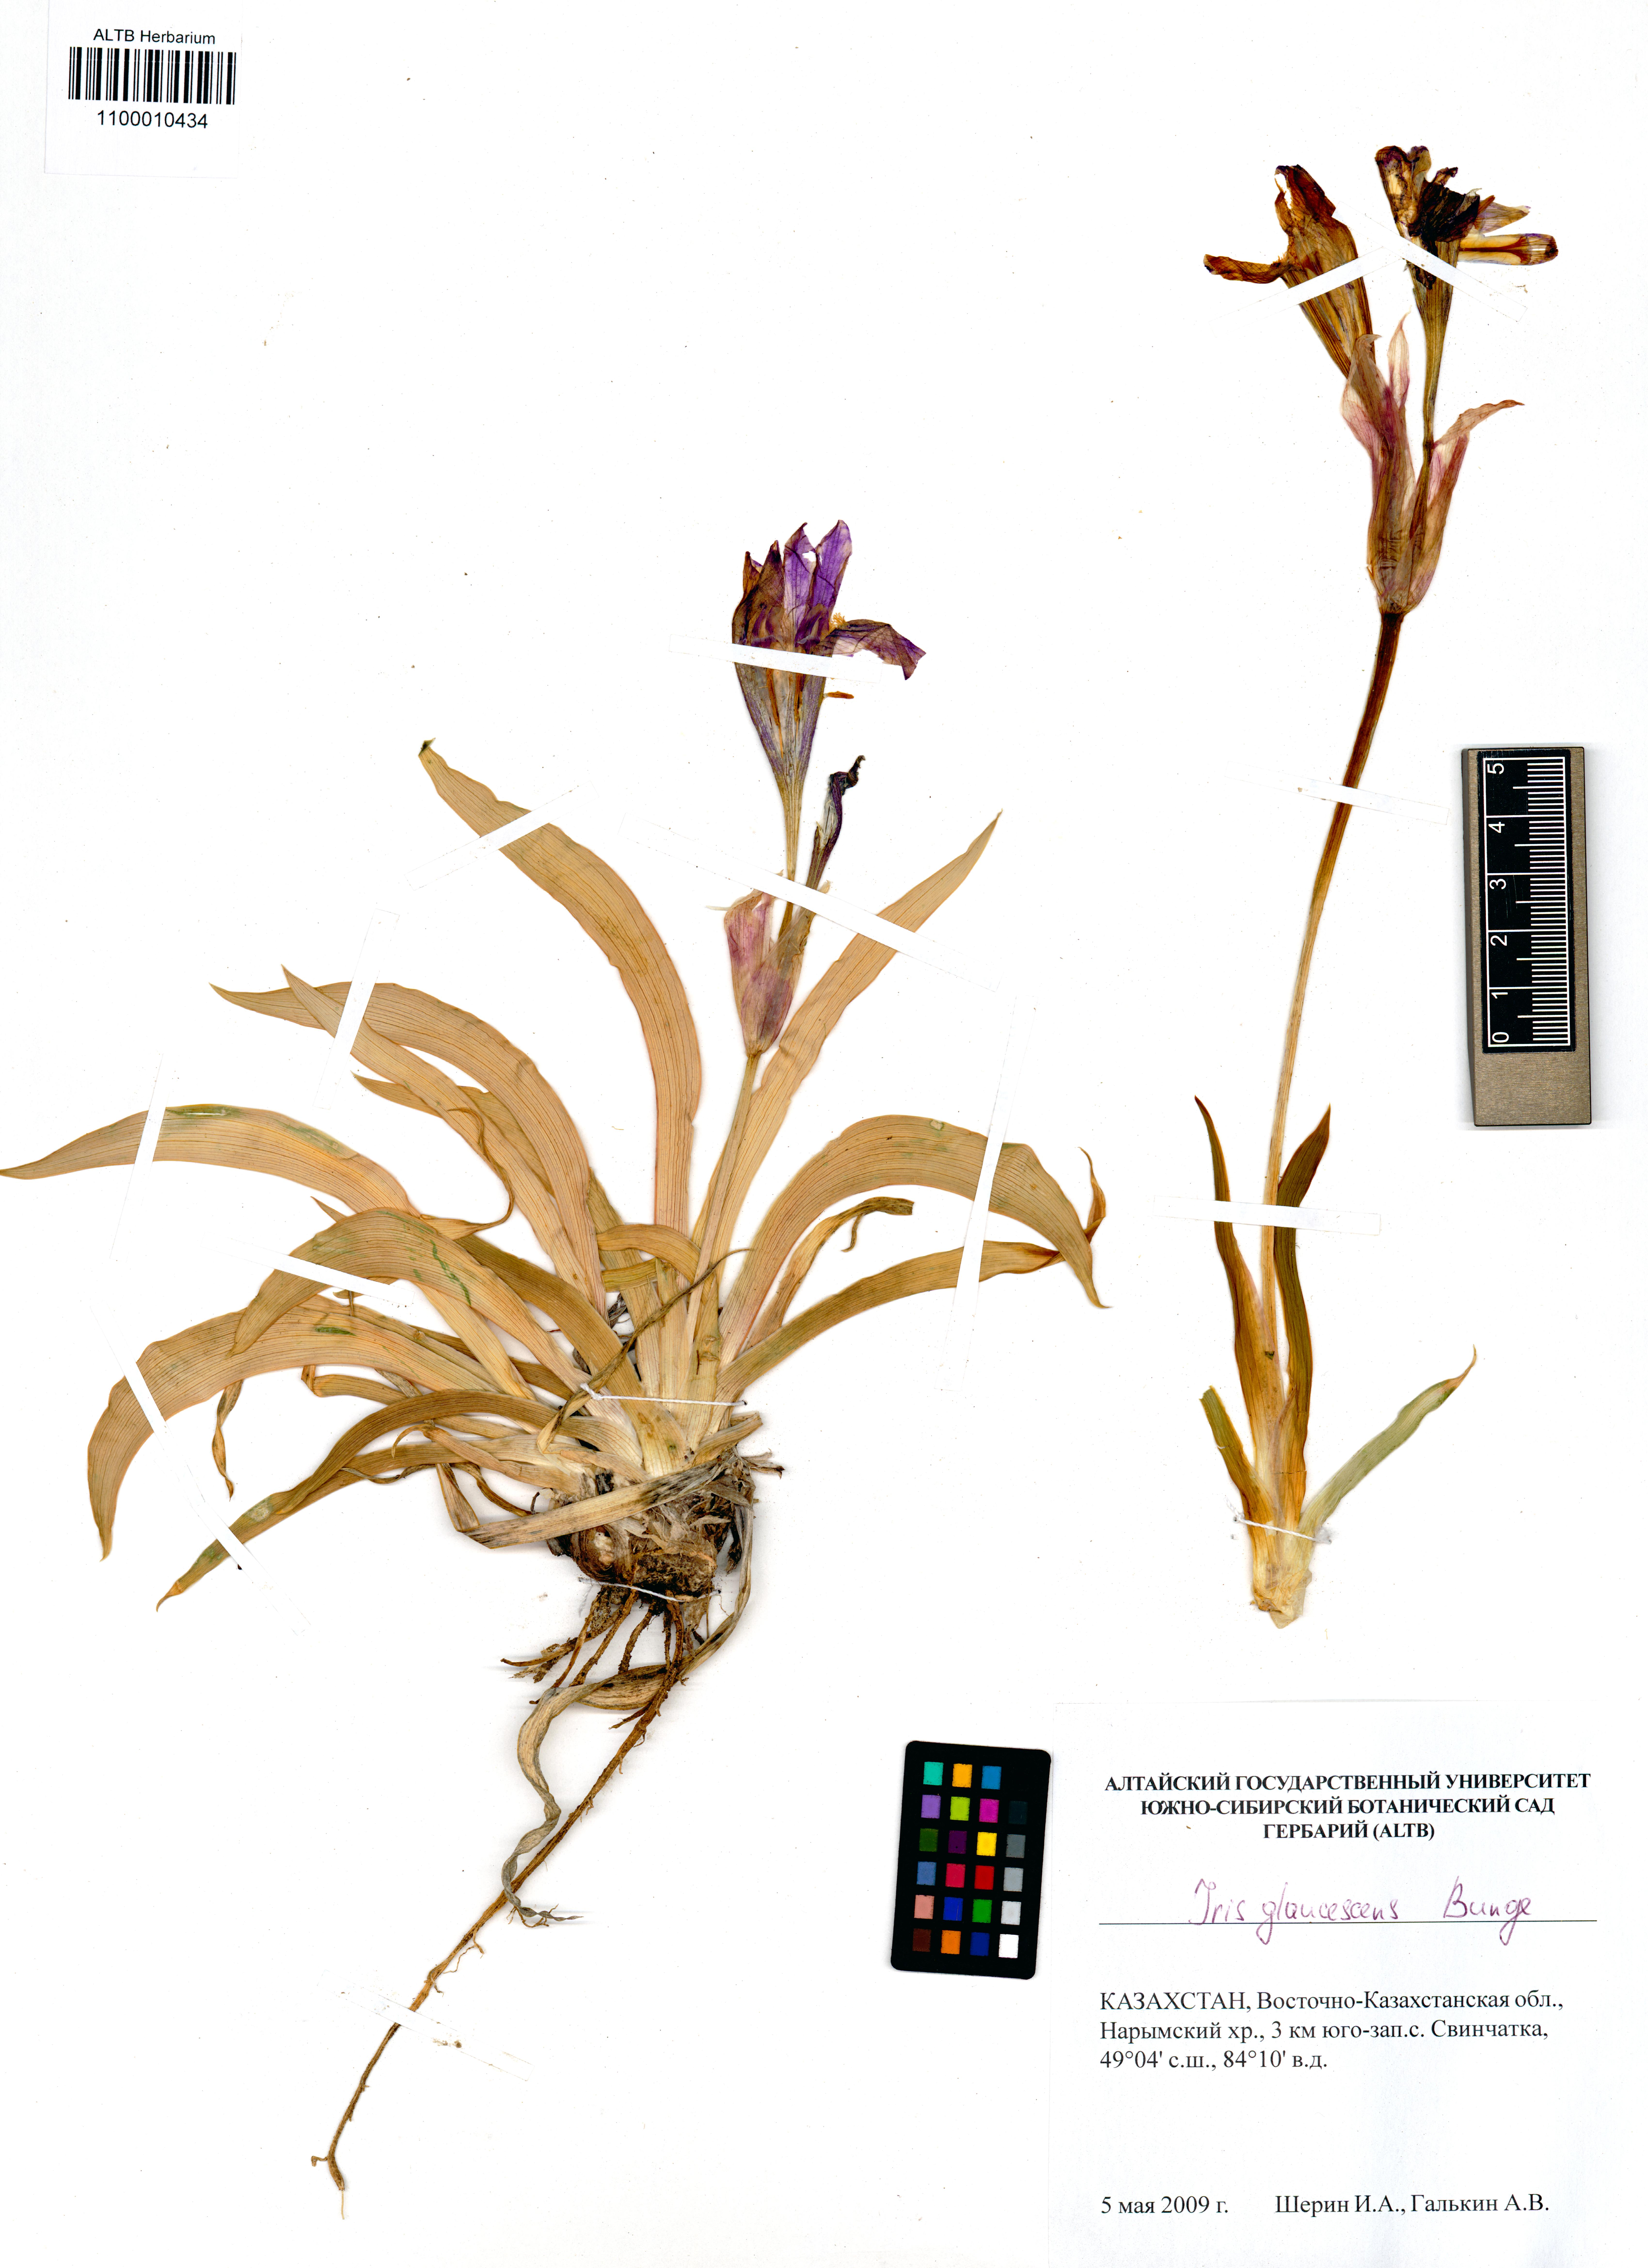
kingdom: Plantae
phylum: Tracheophyta
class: Liliopsida
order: Asparagales
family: Iridaceae
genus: Iris
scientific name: Iris glaucescens
